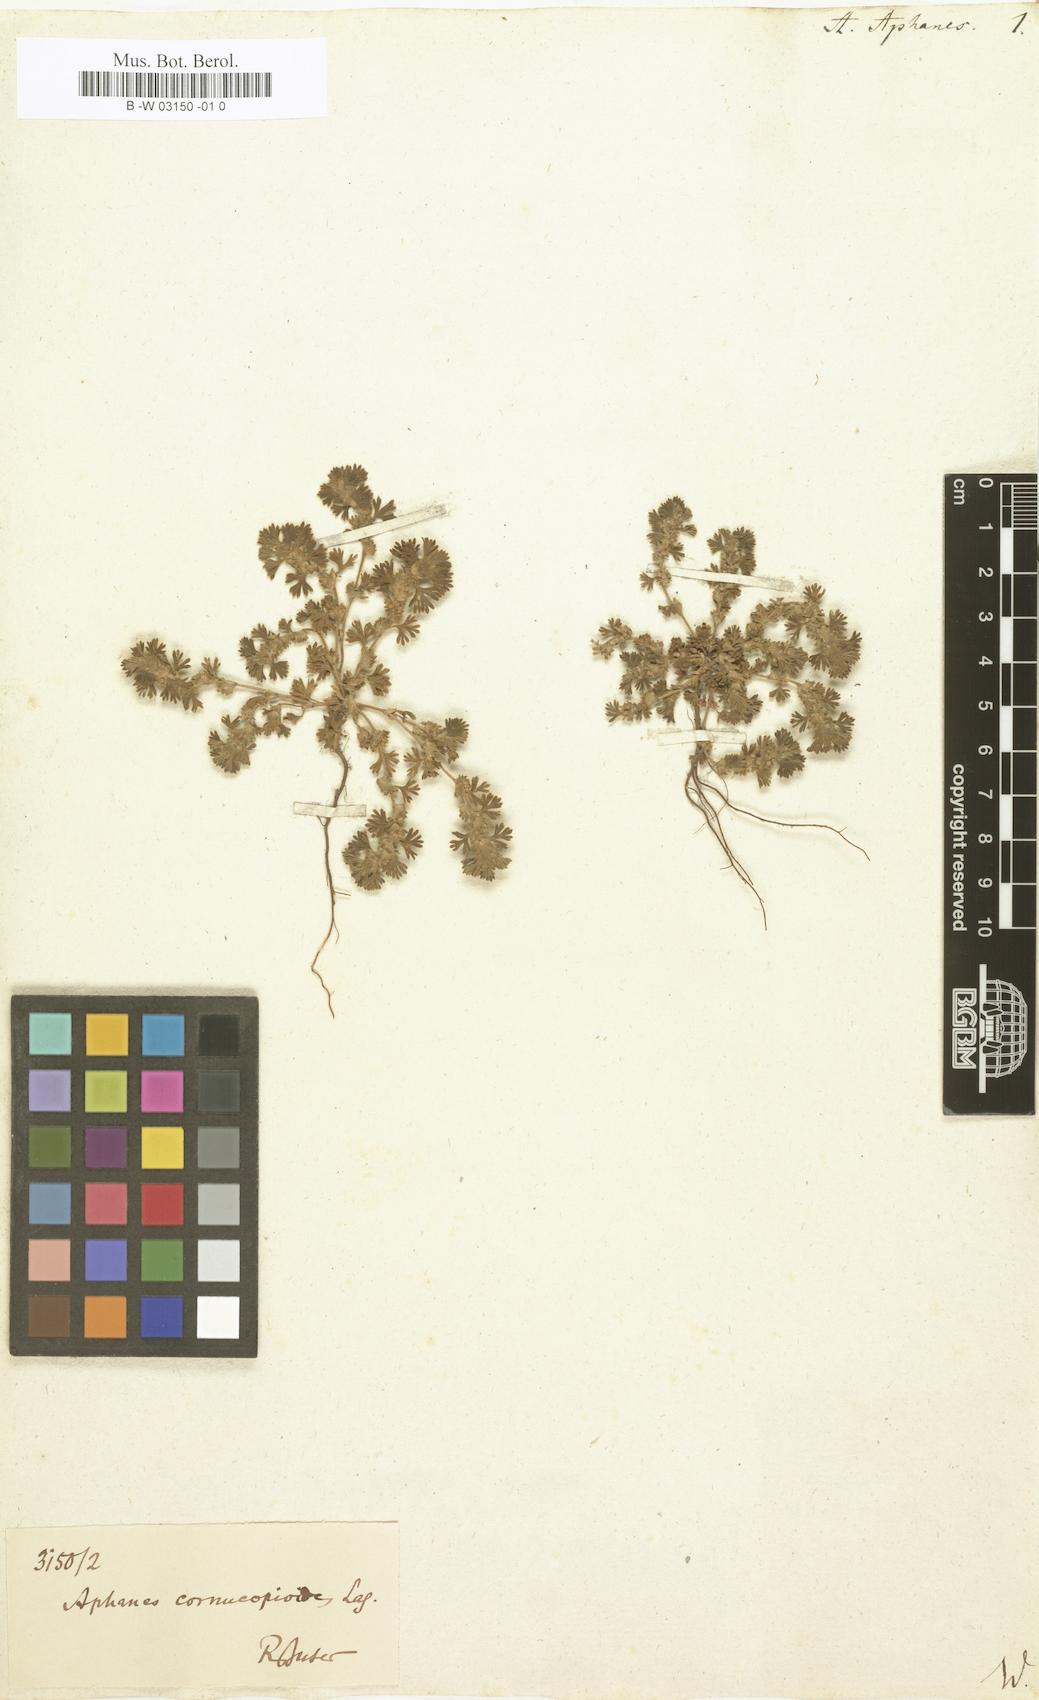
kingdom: Plantae
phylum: Tracheophyta
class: Magnoliopsida
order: Rosales
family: Rosaceae
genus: Aphanes
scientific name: Aphanes arvensis
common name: Parsley-piert
